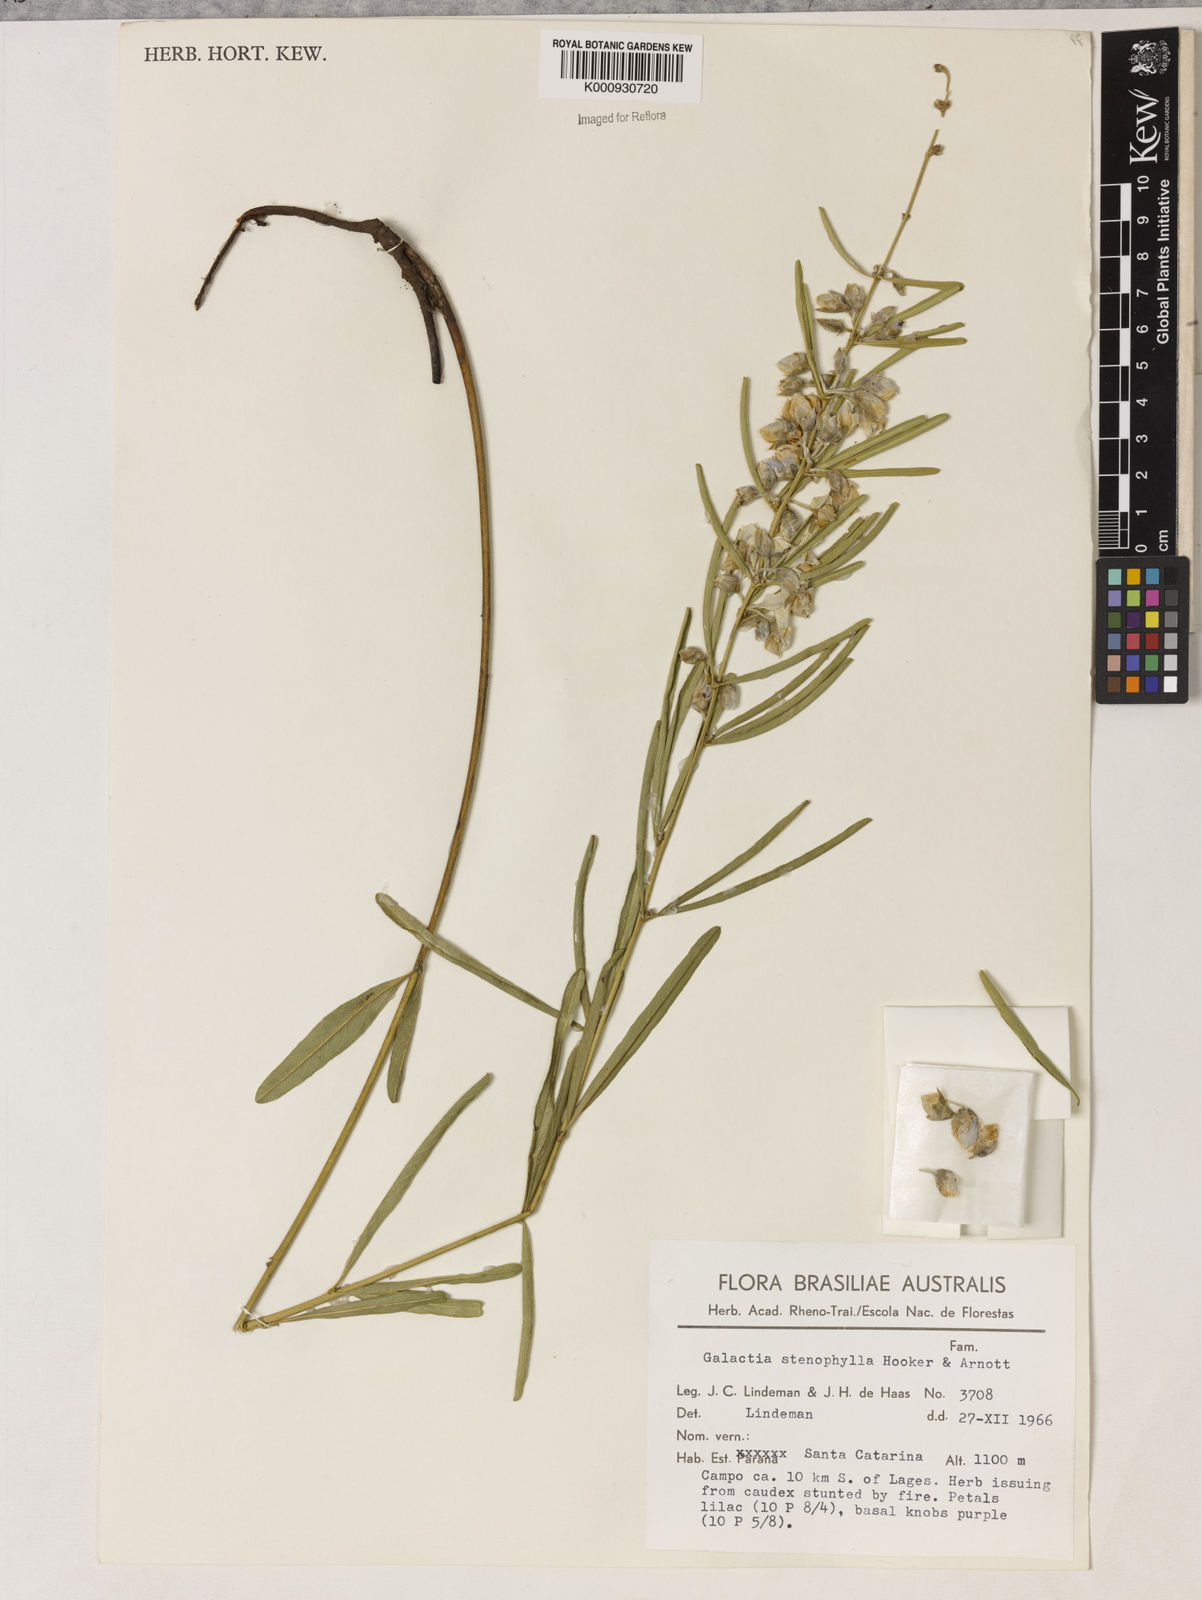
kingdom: Plantae
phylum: Tracheophyta
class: Liliopsida
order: Asparagales
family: Orchidaceae
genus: Pelexia
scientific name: Pelexia
